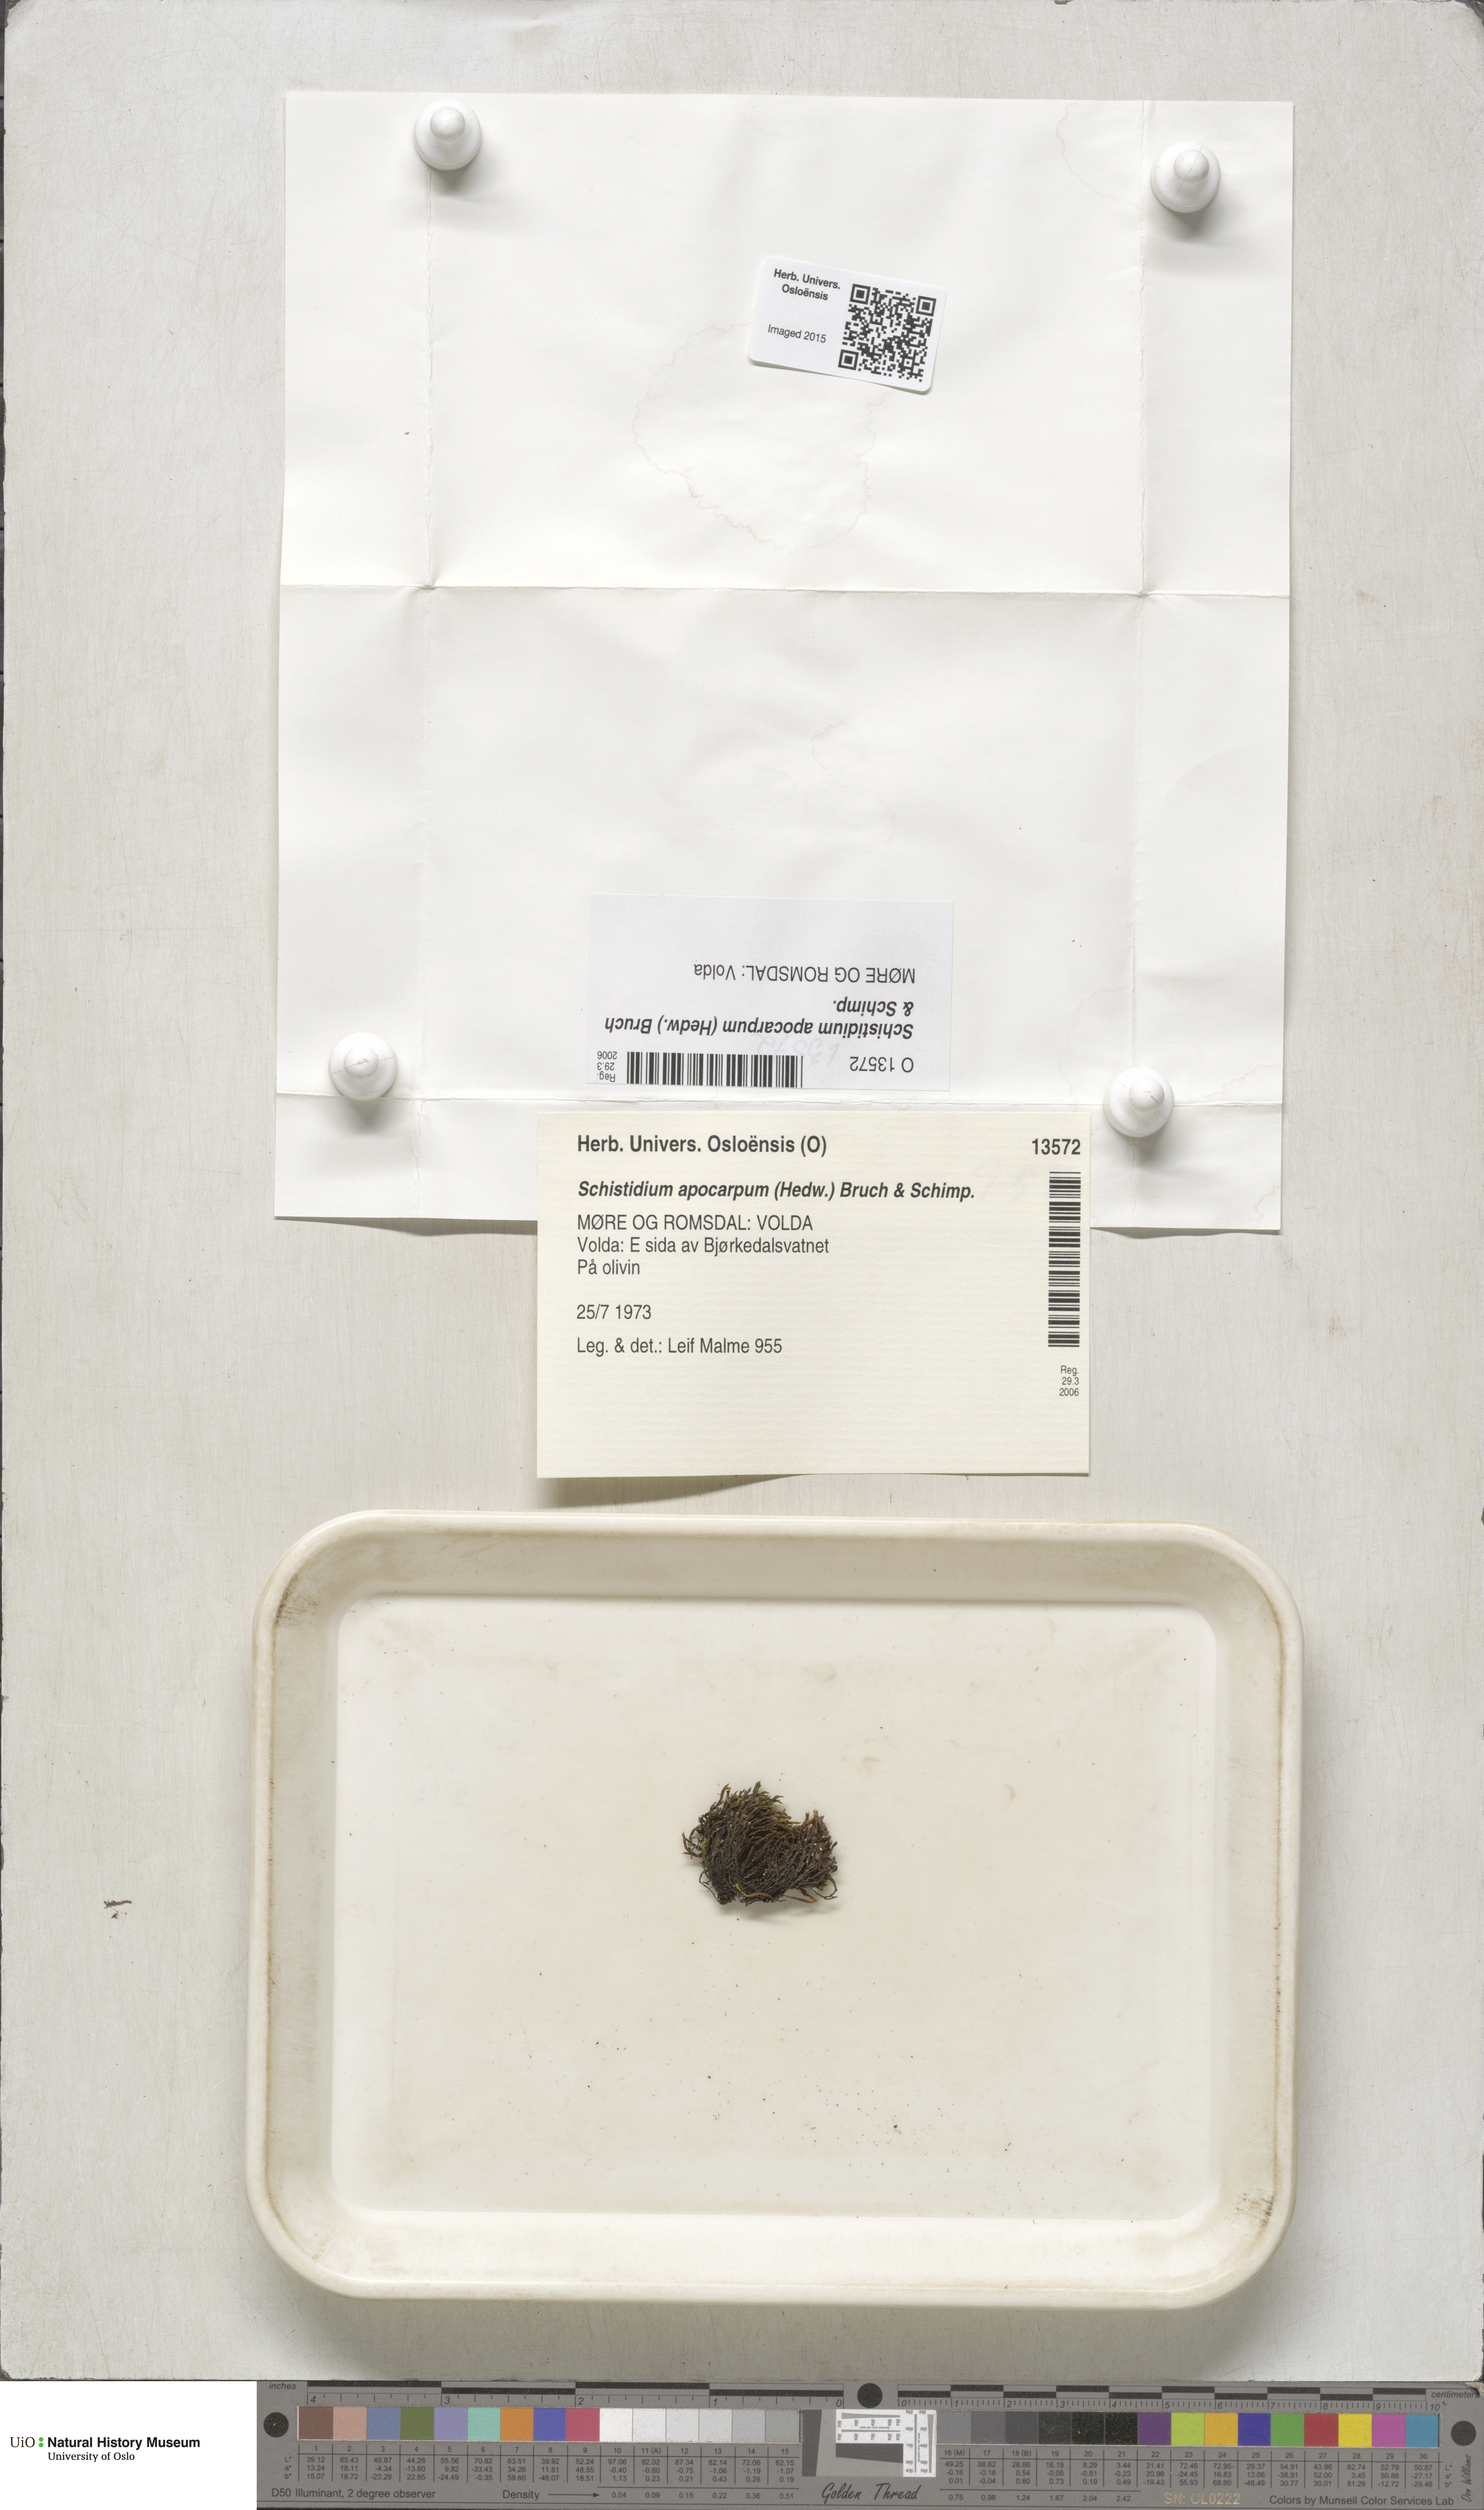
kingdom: Plantae
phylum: Bryophyta
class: Bryopsida
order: Grimmiales
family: Grimmiaceae
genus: Schistidium
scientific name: Schistidium apocarpum
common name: Radiate bloom moss
